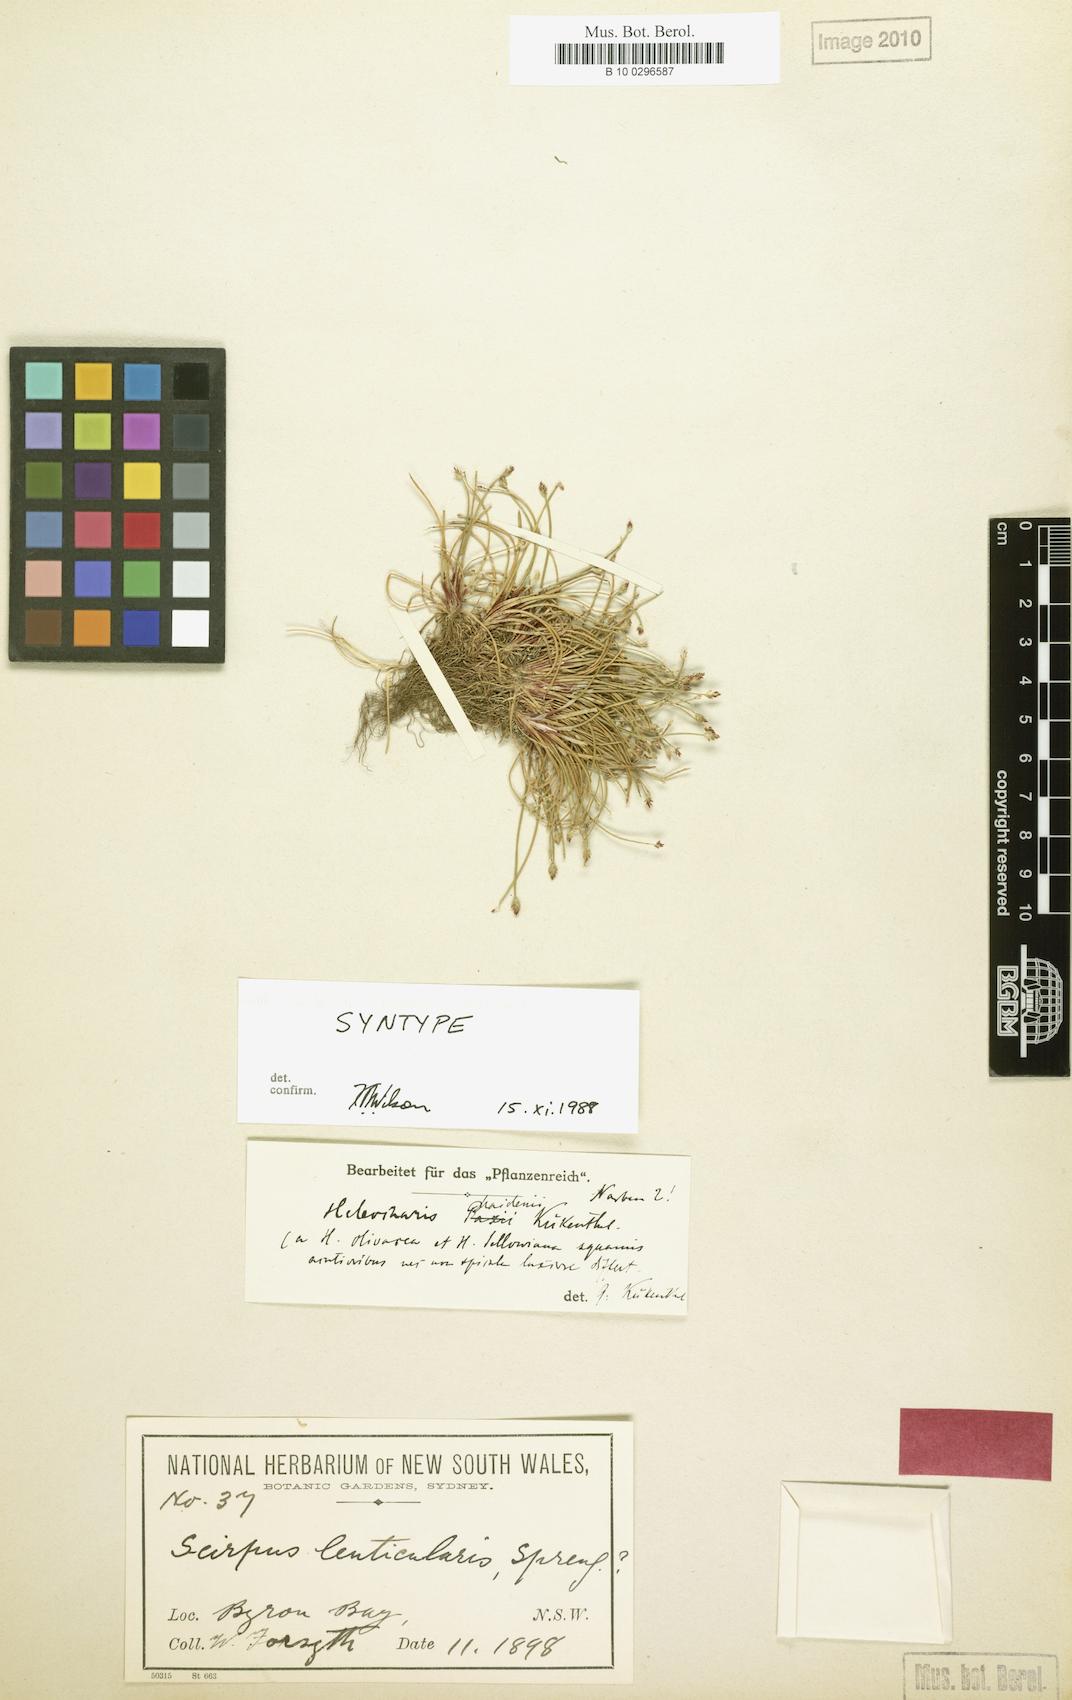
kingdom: Plantae
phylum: Tracheophyta
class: Liliopsida
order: Poales
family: Cyperaceae
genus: Eleocharis
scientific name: Eleocharis maidenii
